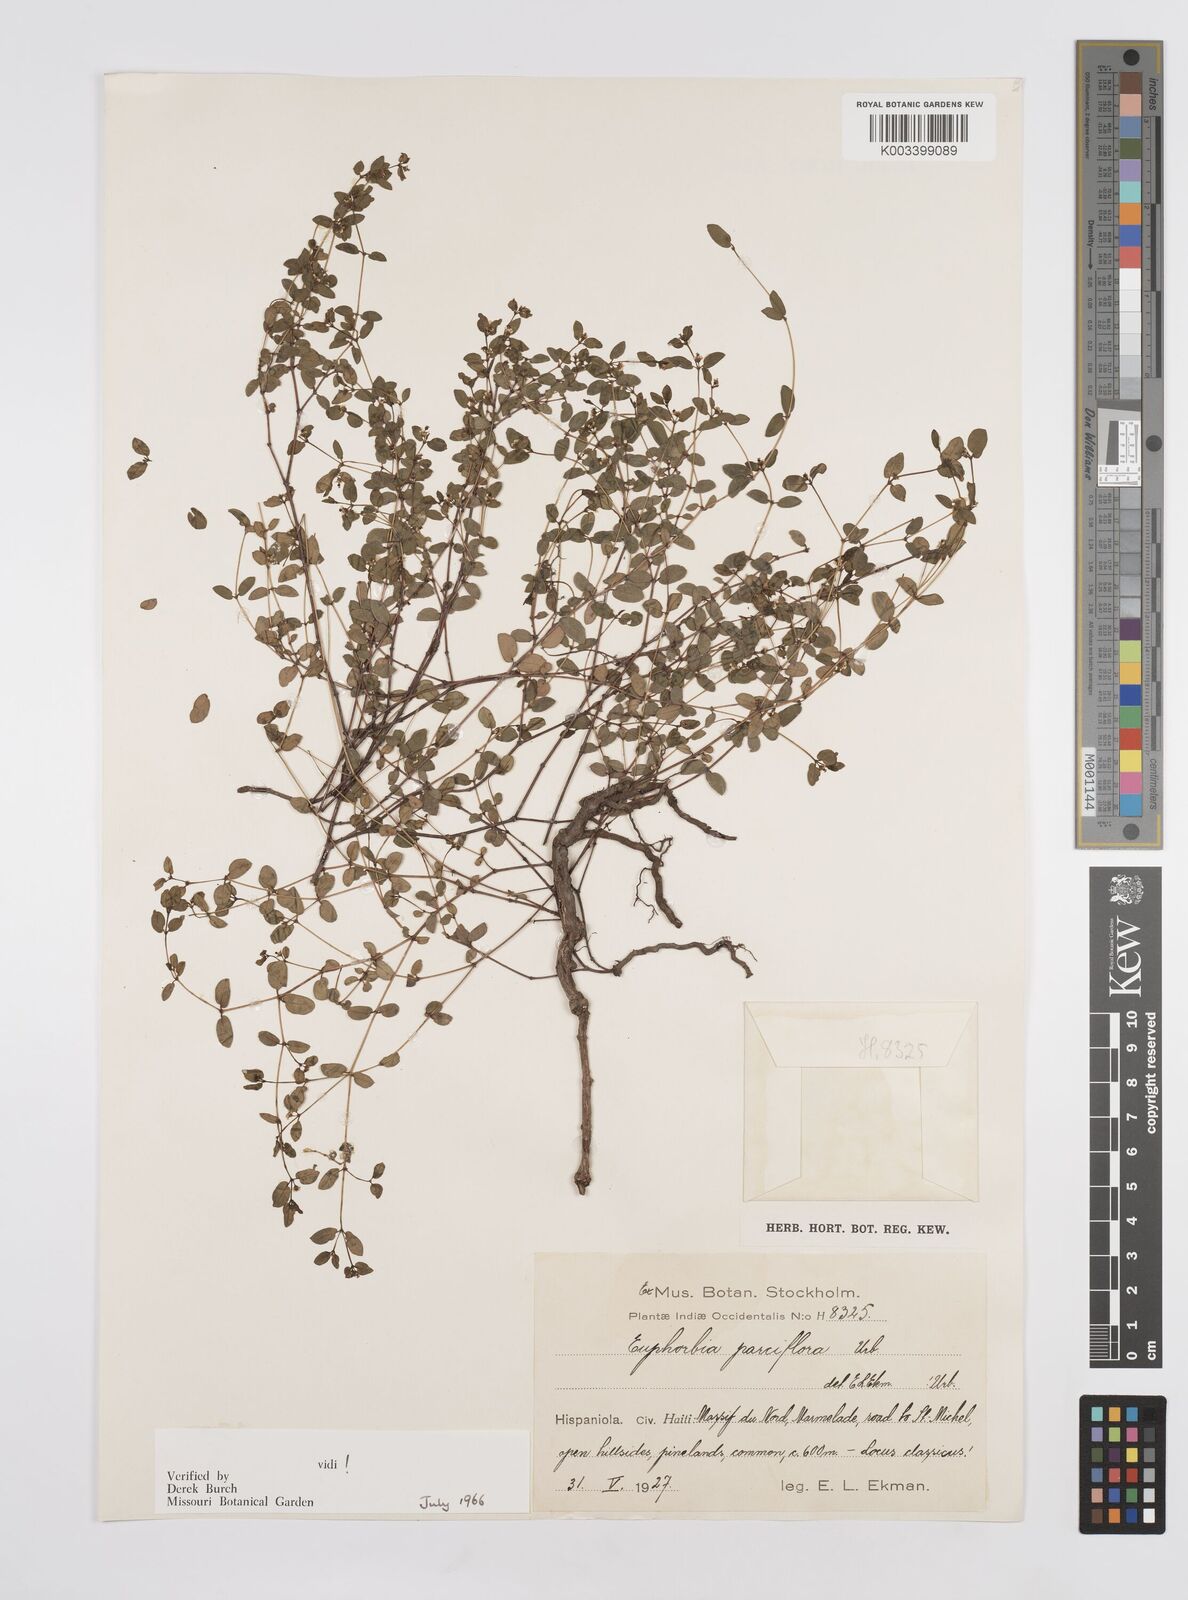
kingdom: Plantae
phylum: Tracheophyta
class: Magnoliopsida
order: Malpighiales
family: Euphorbiaceae
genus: Euphorbia
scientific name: Euphorbia parciflora
